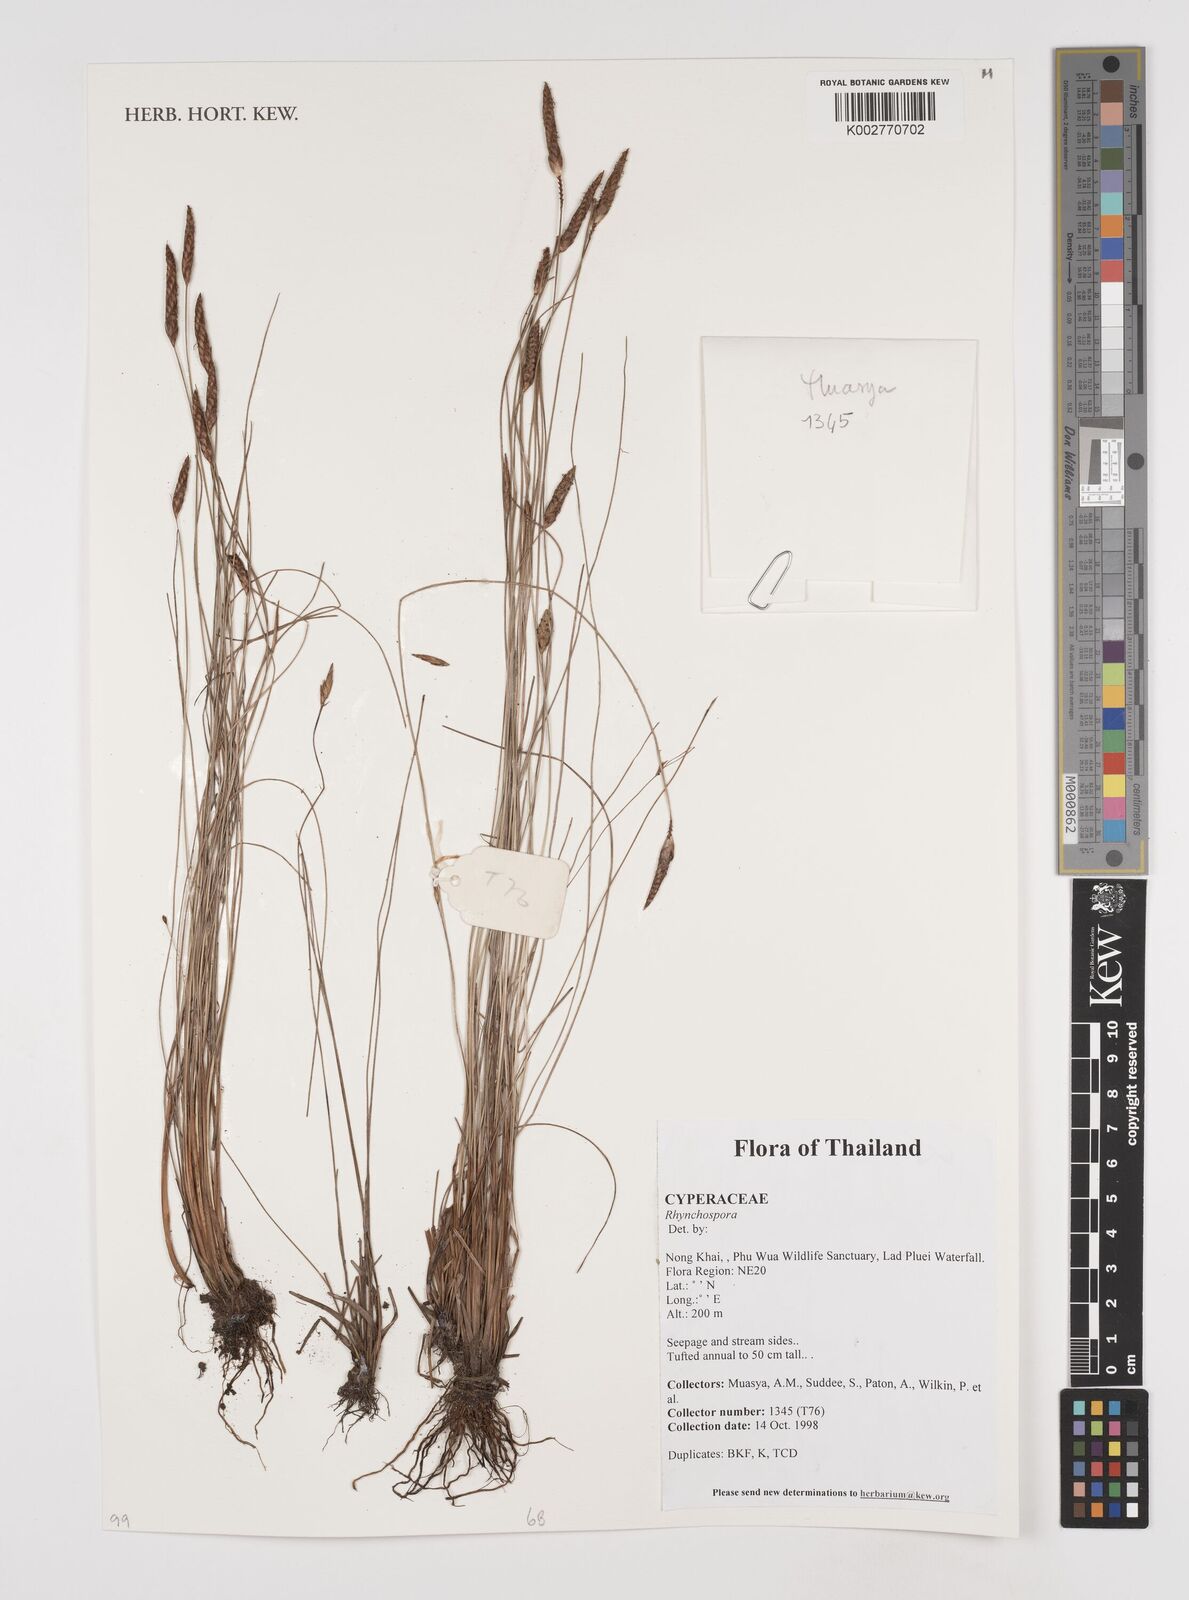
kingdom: Plantae
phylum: Tracheophyta
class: Liliopsida
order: Poales
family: Cyperaceae
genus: Rhynchospora
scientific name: Rhynchospora
